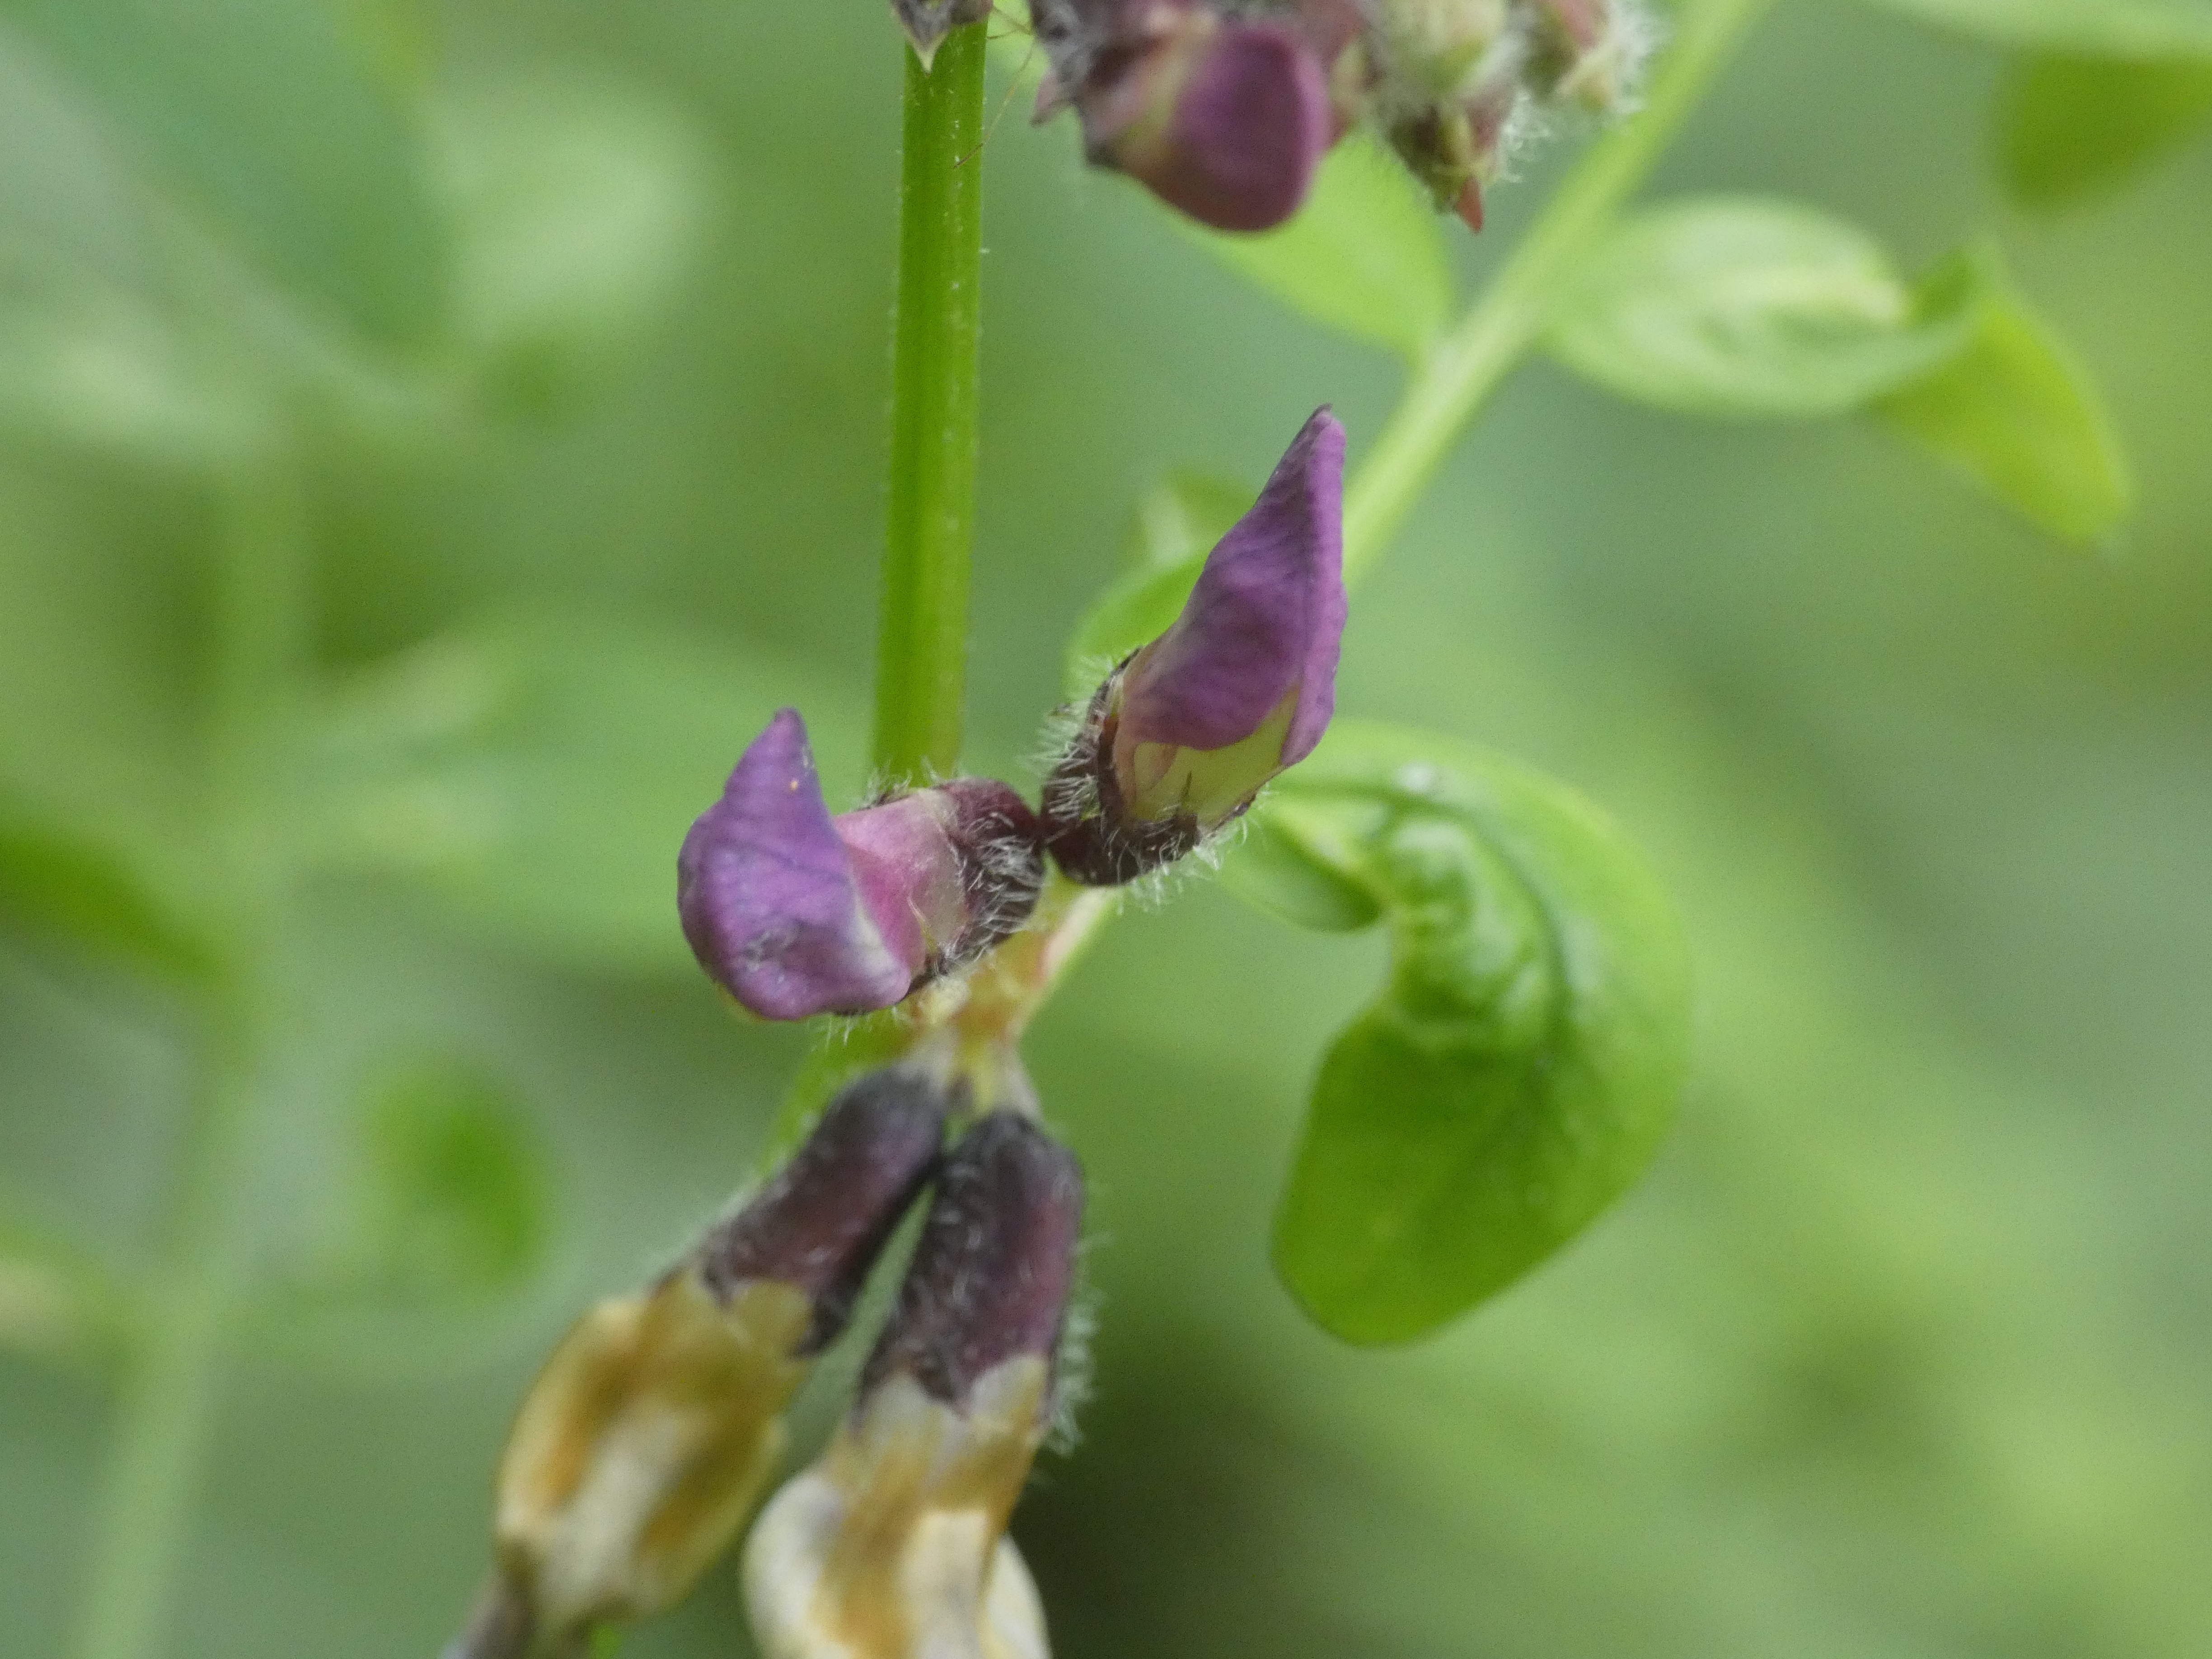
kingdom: Plantae
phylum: Tracheophyta
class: Magnoliopsida
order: Fabales
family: Fabaceae
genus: Vicia
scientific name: Vicia sepium
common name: Gærde-vikke
